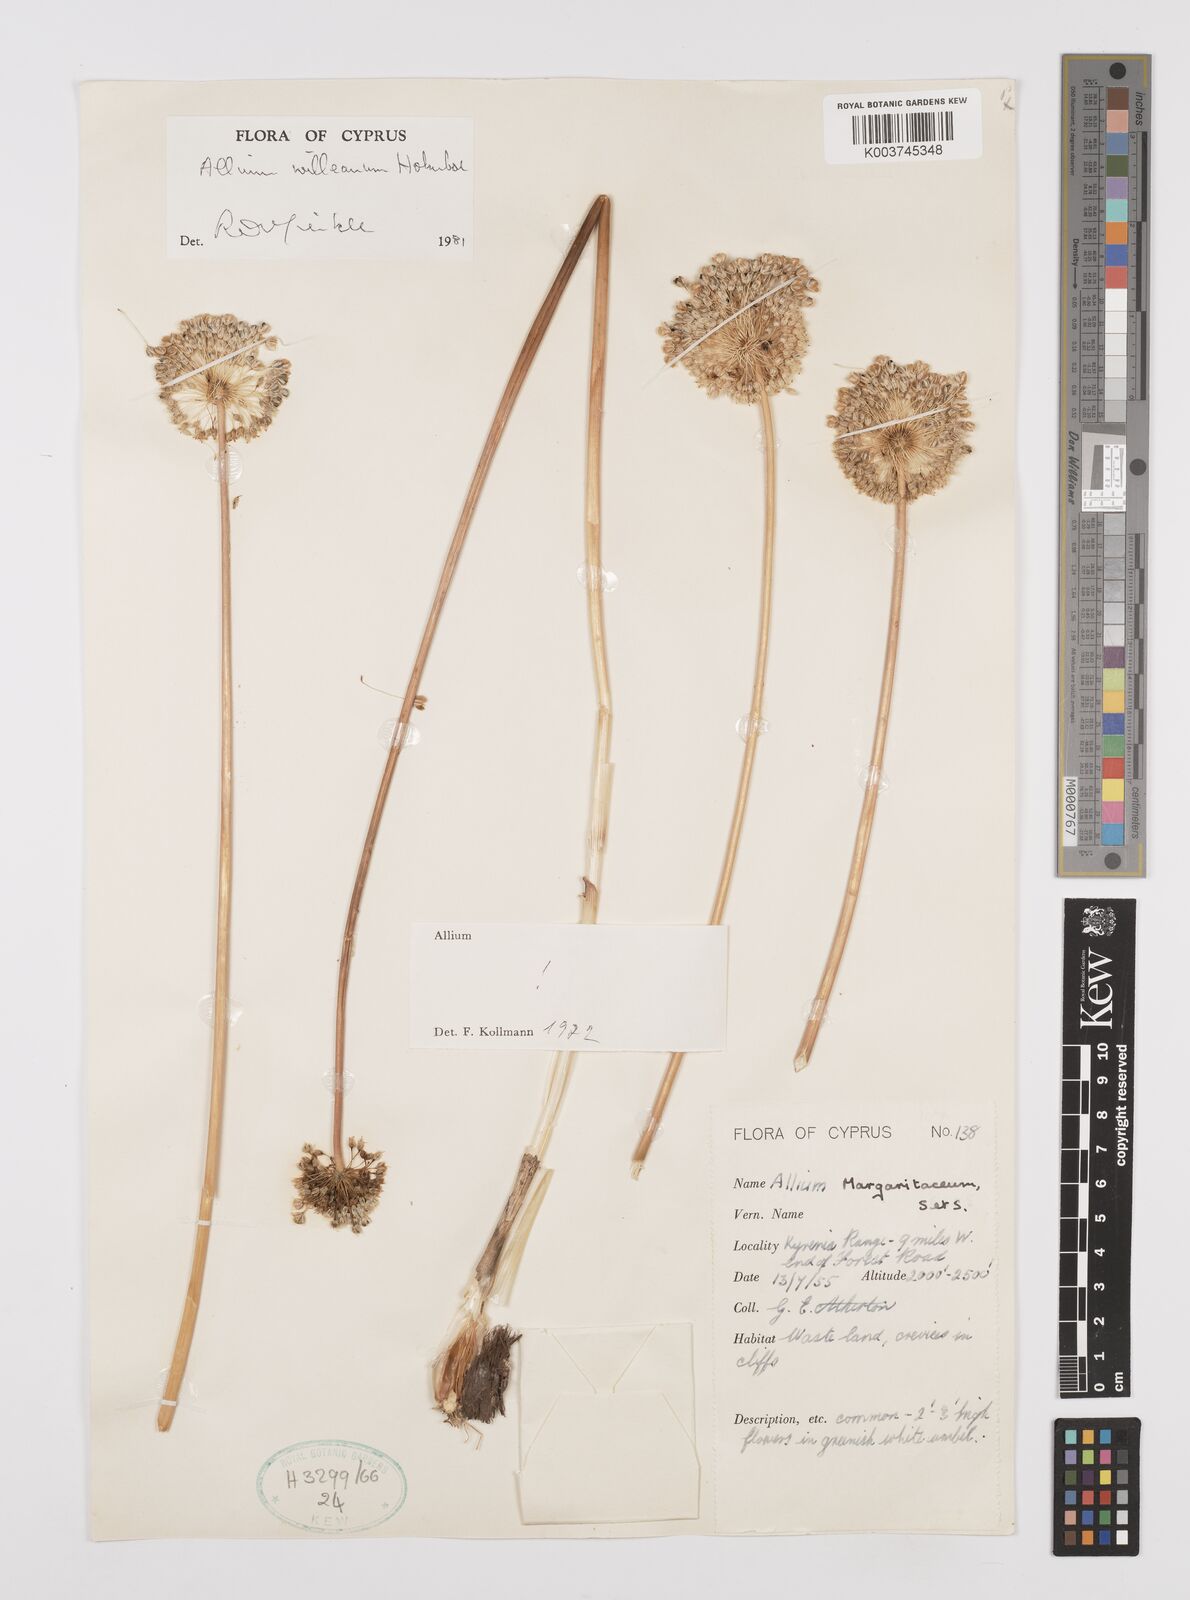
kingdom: Plantae
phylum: Tracheophyta
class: Liliopsida
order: Asparagales
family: Amaryllidaceae
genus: Allium
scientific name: Allium willeanum
